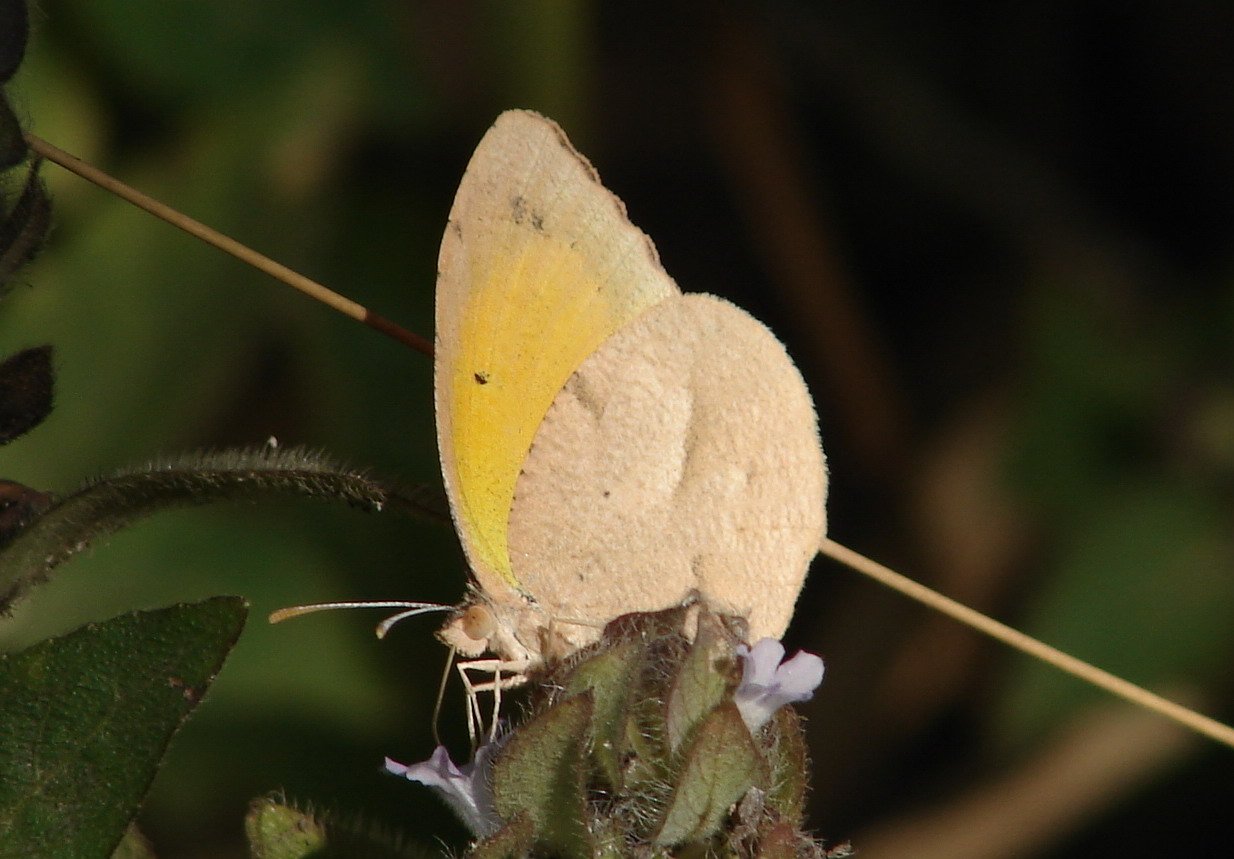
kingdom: Animalia
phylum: Arthropoda
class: Insecta
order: Lepidoptera
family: Pieridae
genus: Abaeis
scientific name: Abaeis nicippe
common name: Sleepy Orange
